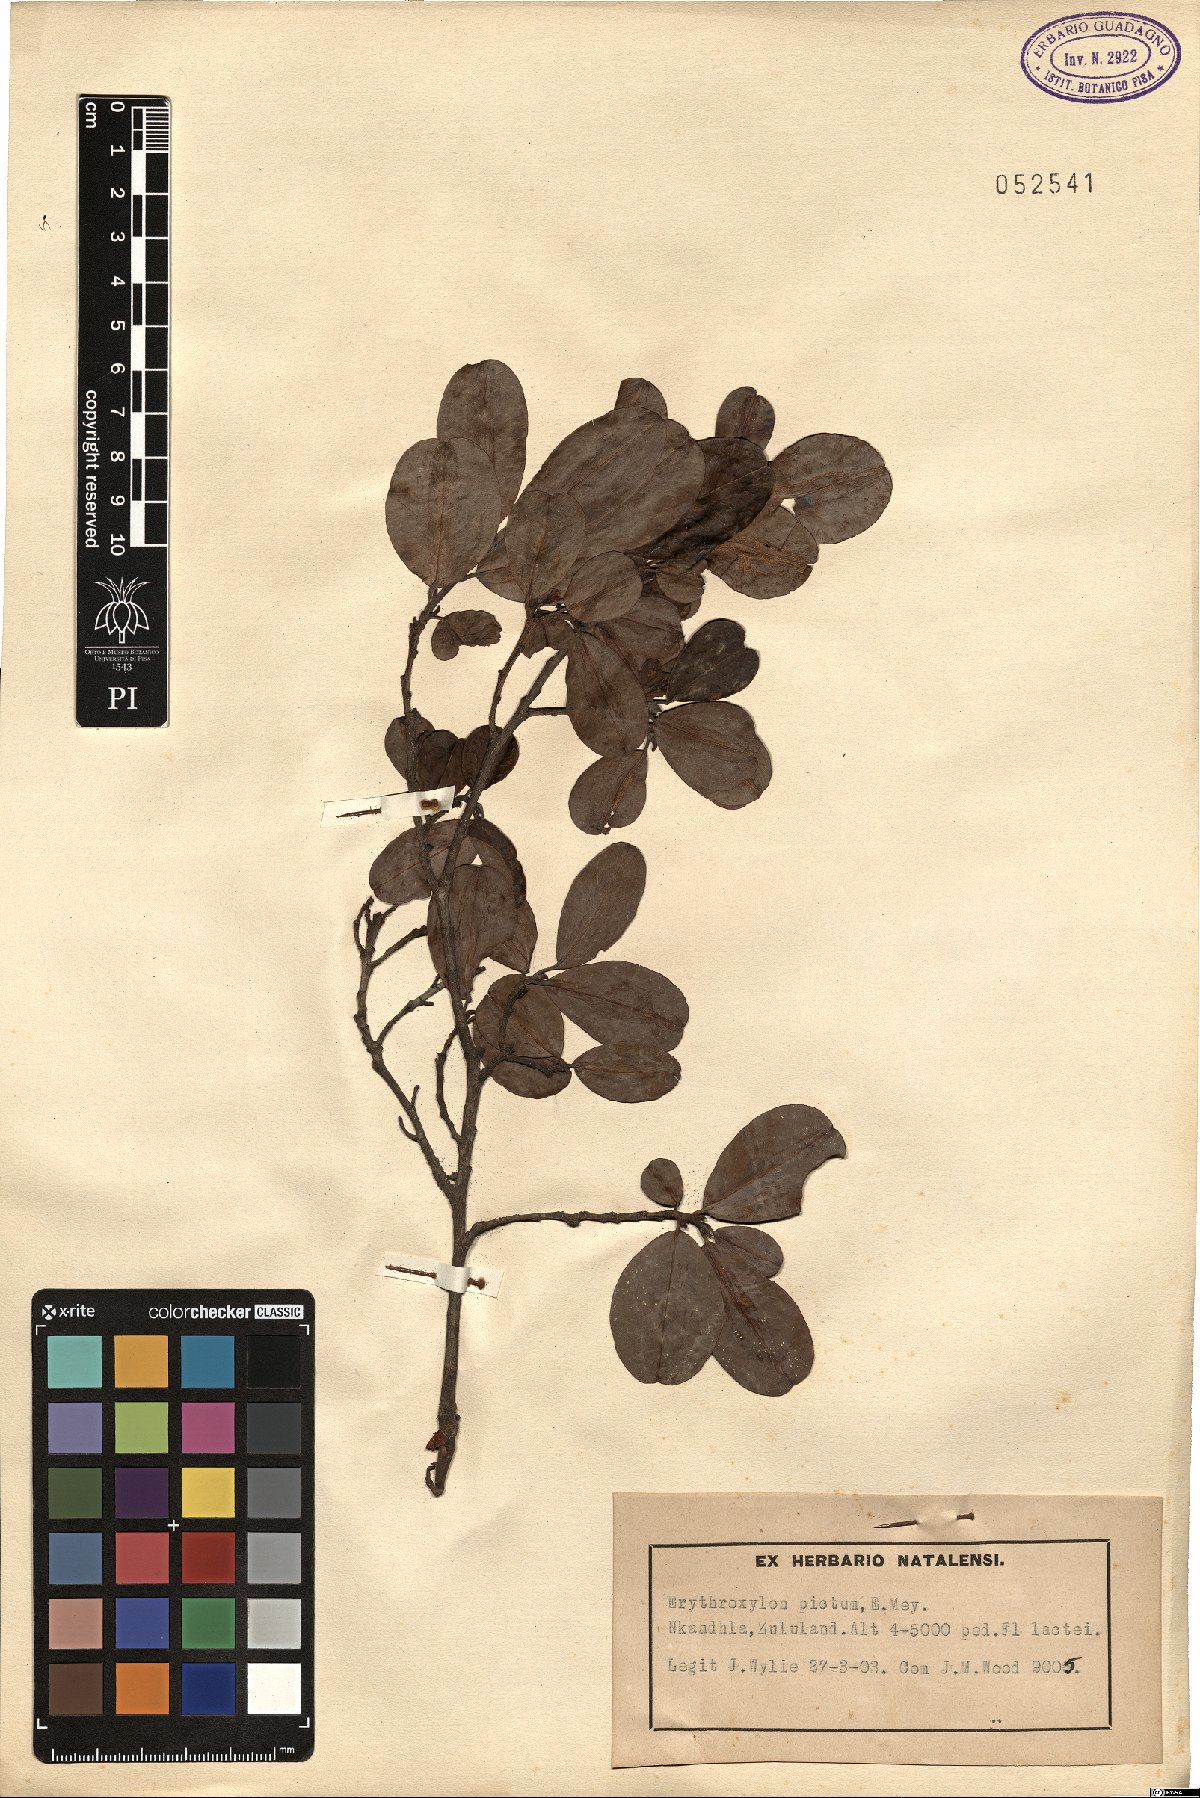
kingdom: Plantae
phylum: Tracheophyta
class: Magnoliopsida
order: Malpighiales
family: Erythroxylaceae
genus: Erythroxylum
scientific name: Erythroxylum pictum
